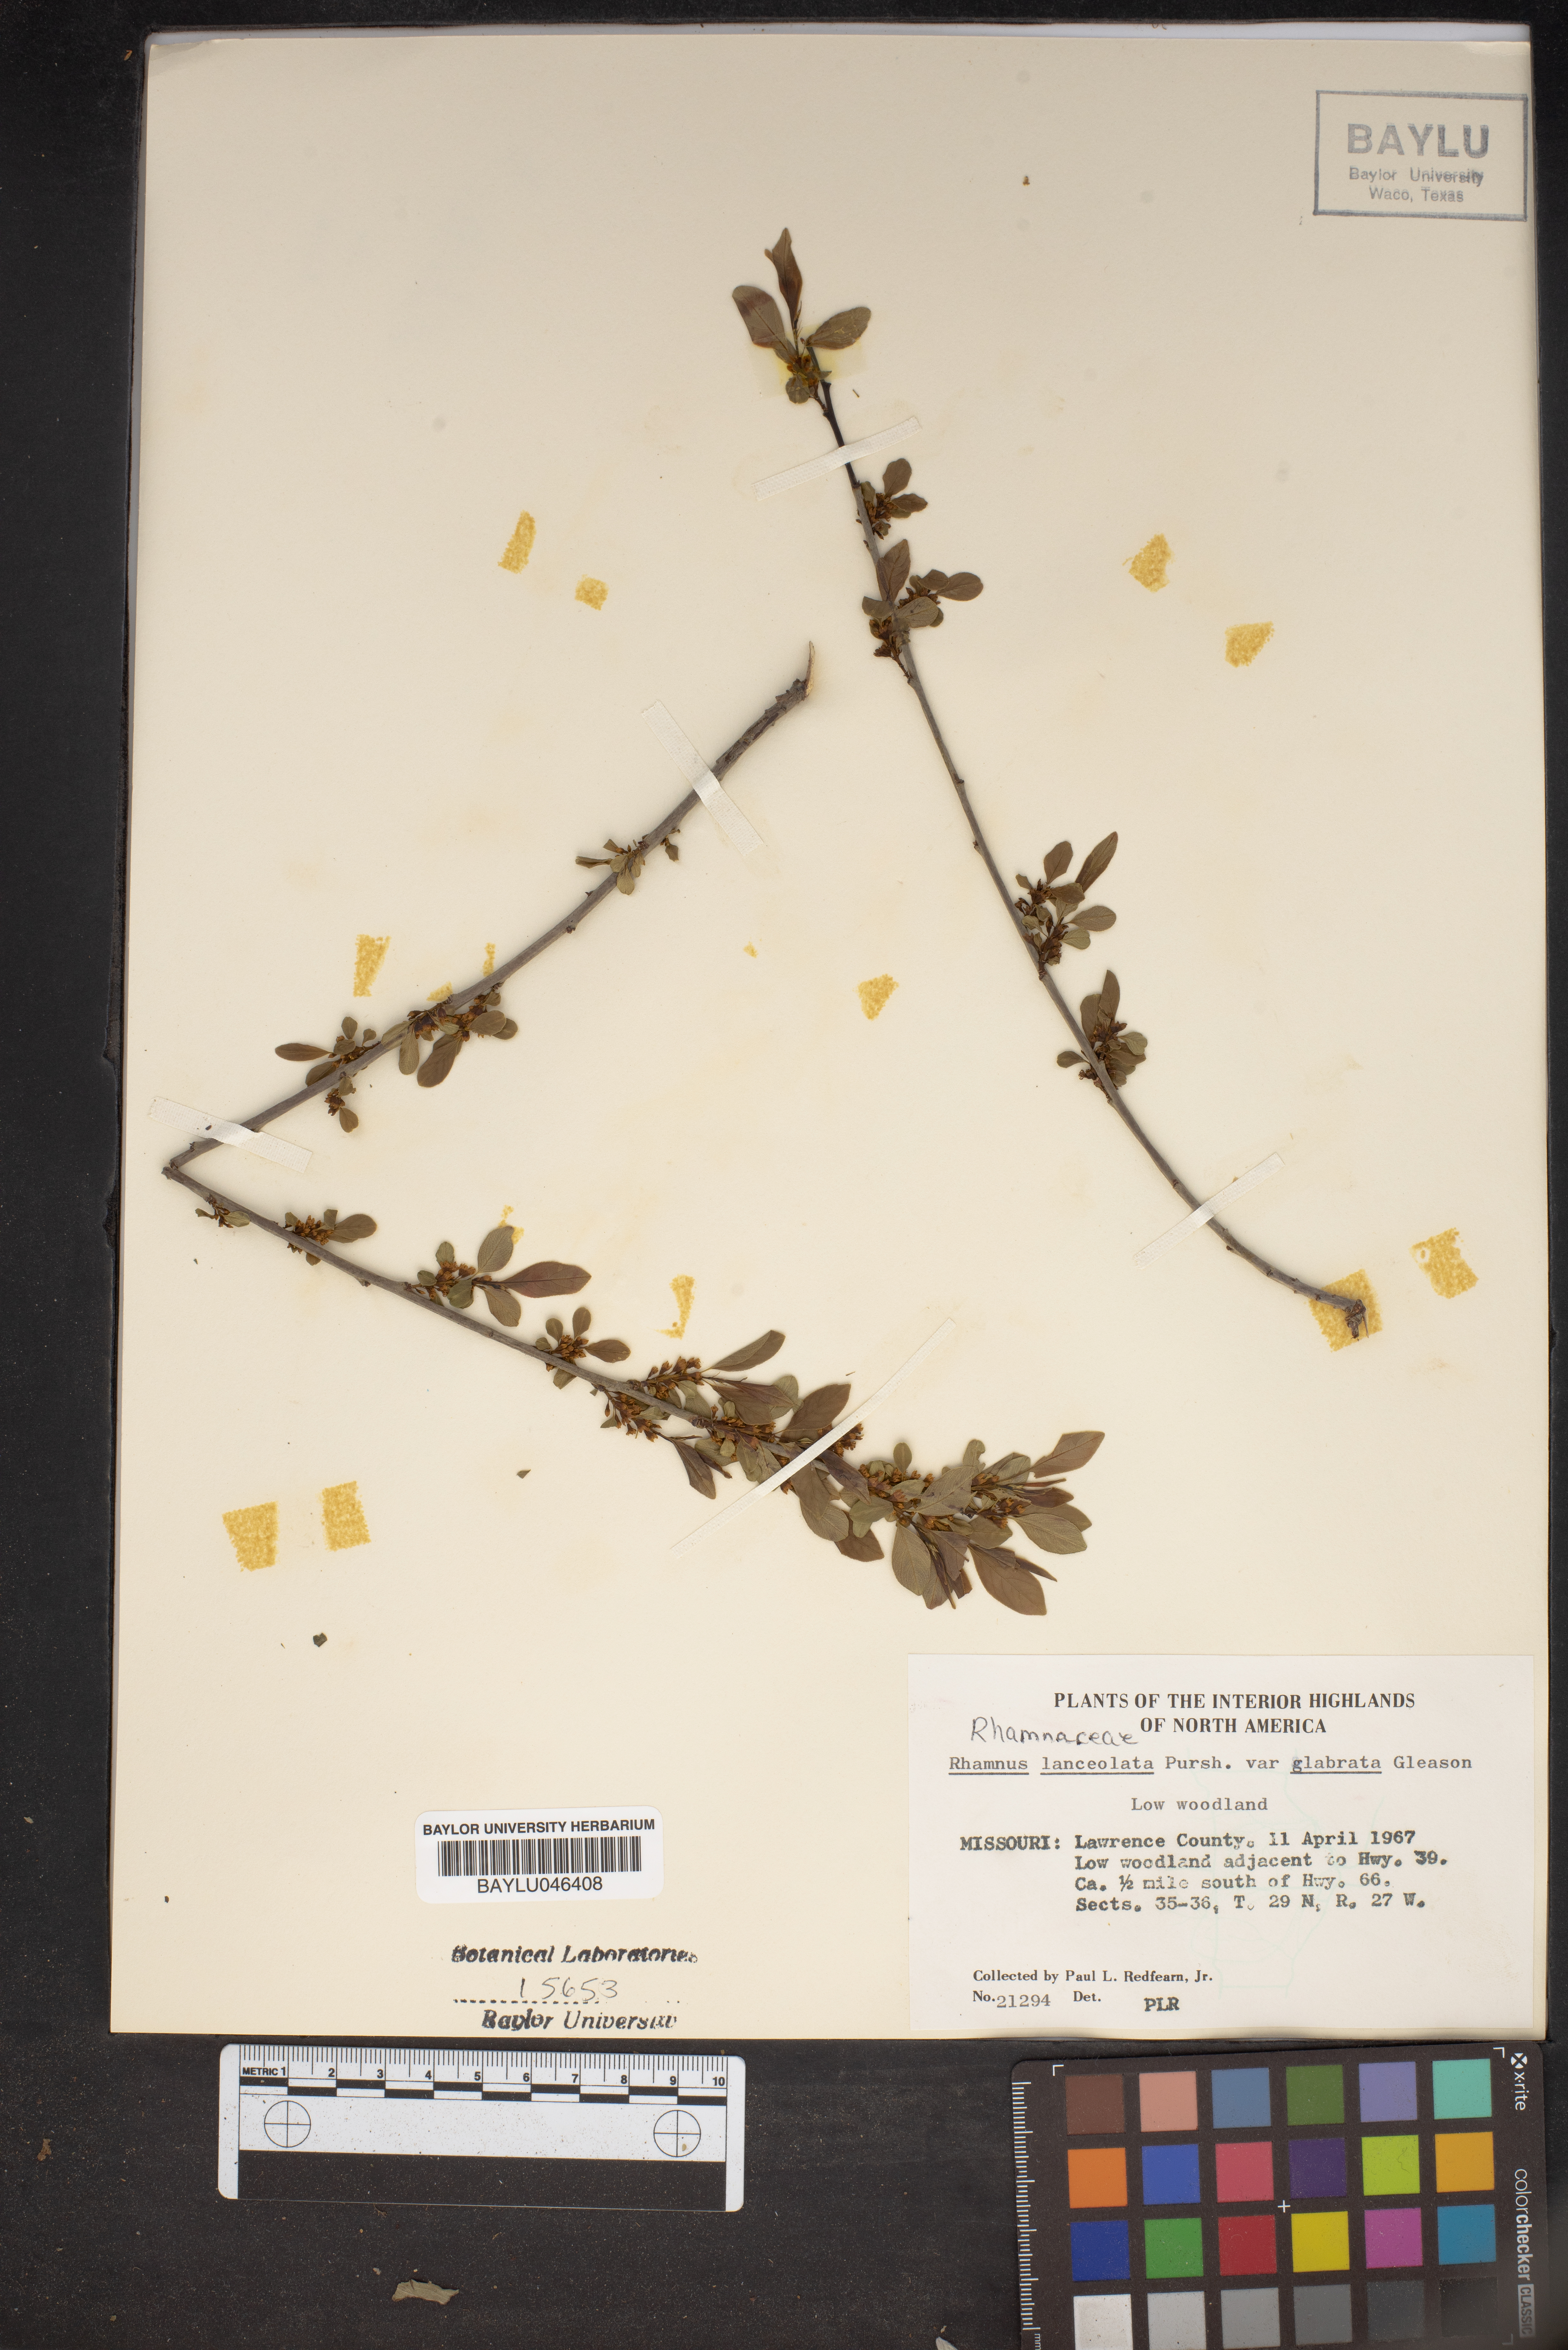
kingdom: Plantae
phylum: Tracheophyta
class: Magnoliopsida
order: Rosales
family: Rhamnaceae
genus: Endotropis
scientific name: Endotropis lanceolata
